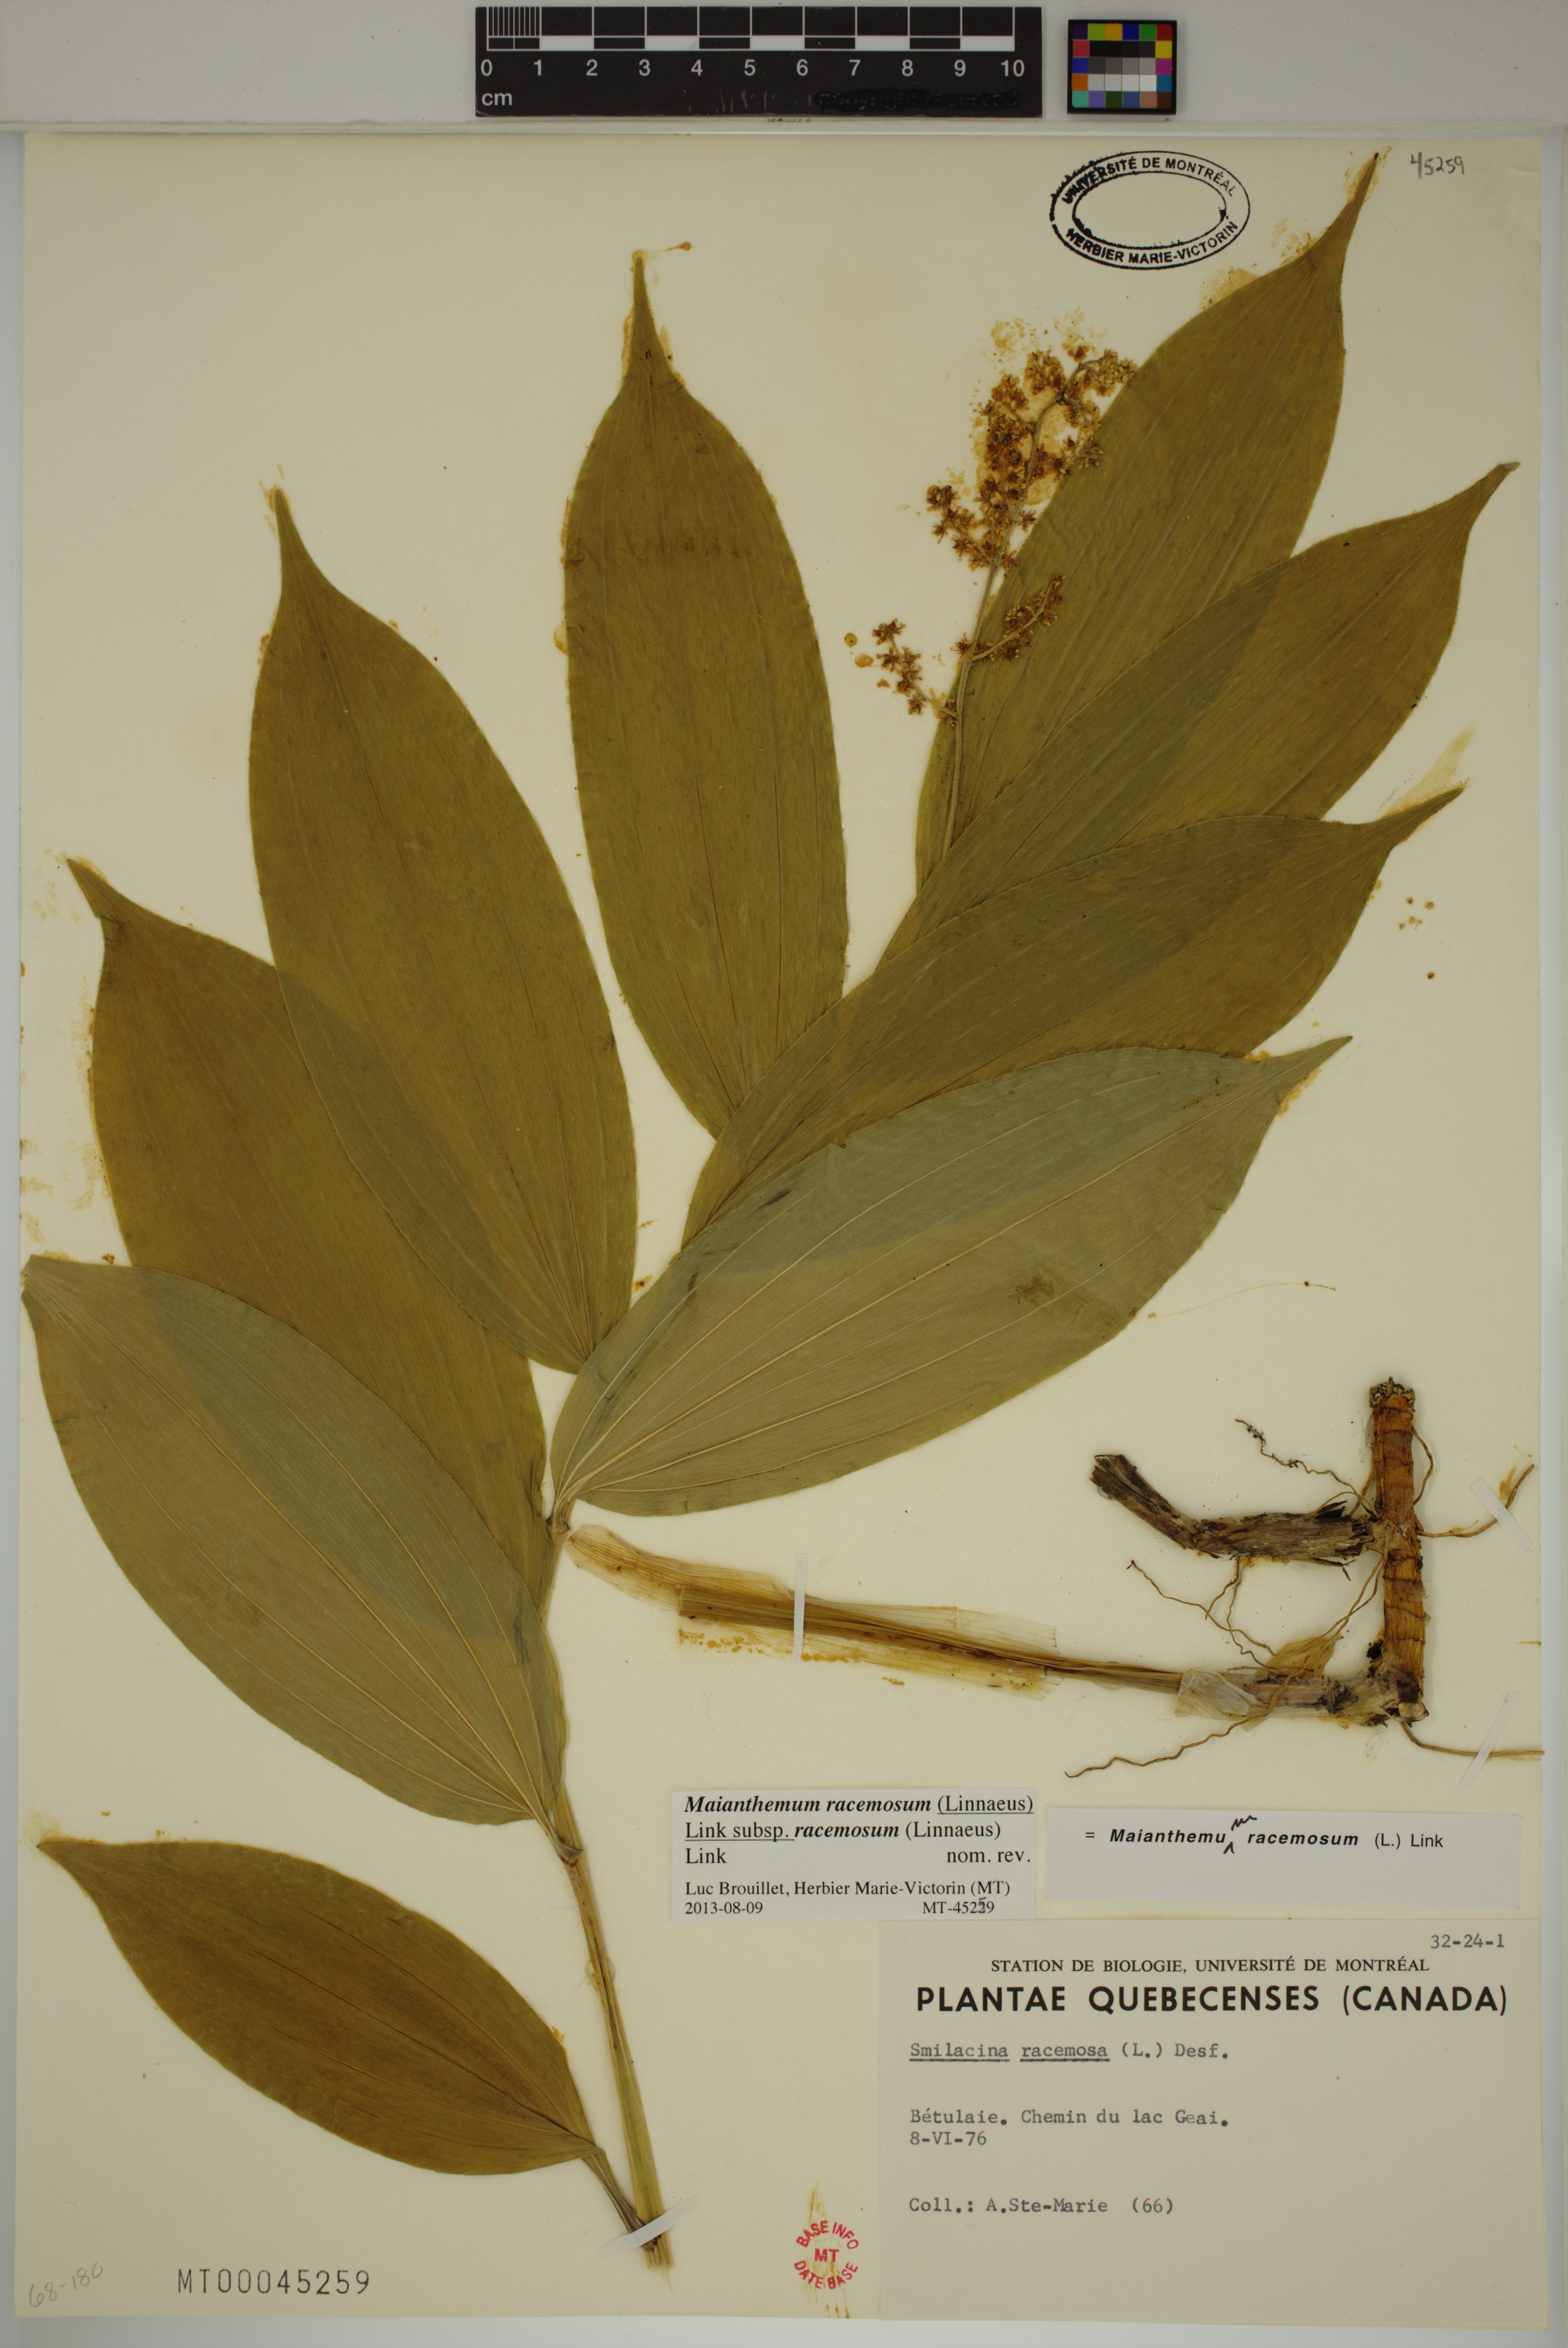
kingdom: Plantae
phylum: Tracheophyta
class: Liliopsida
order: Asparagales
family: Asparagaceae
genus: Maianthemum
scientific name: Maianthemum racemosum
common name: False spikenard
